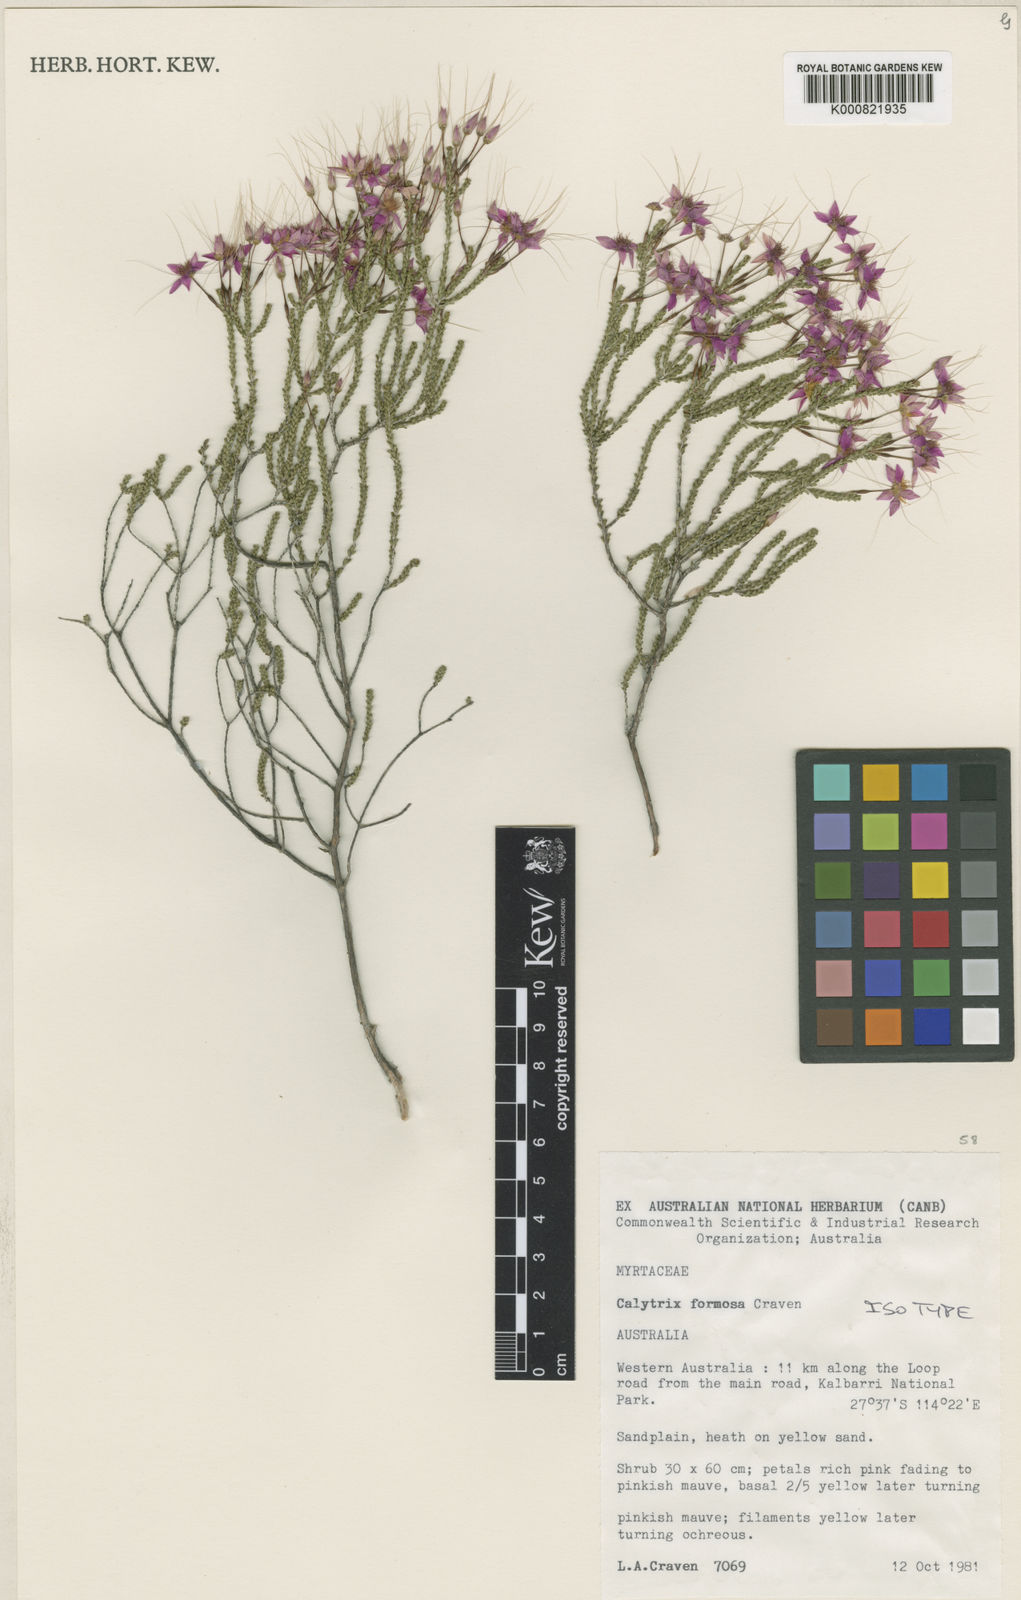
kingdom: Plantae
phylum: Tracheophyta
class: Magnoliopsida
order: Myrtales
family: Myrtaceae
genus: Calytrix
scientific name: Calytrix formosa
